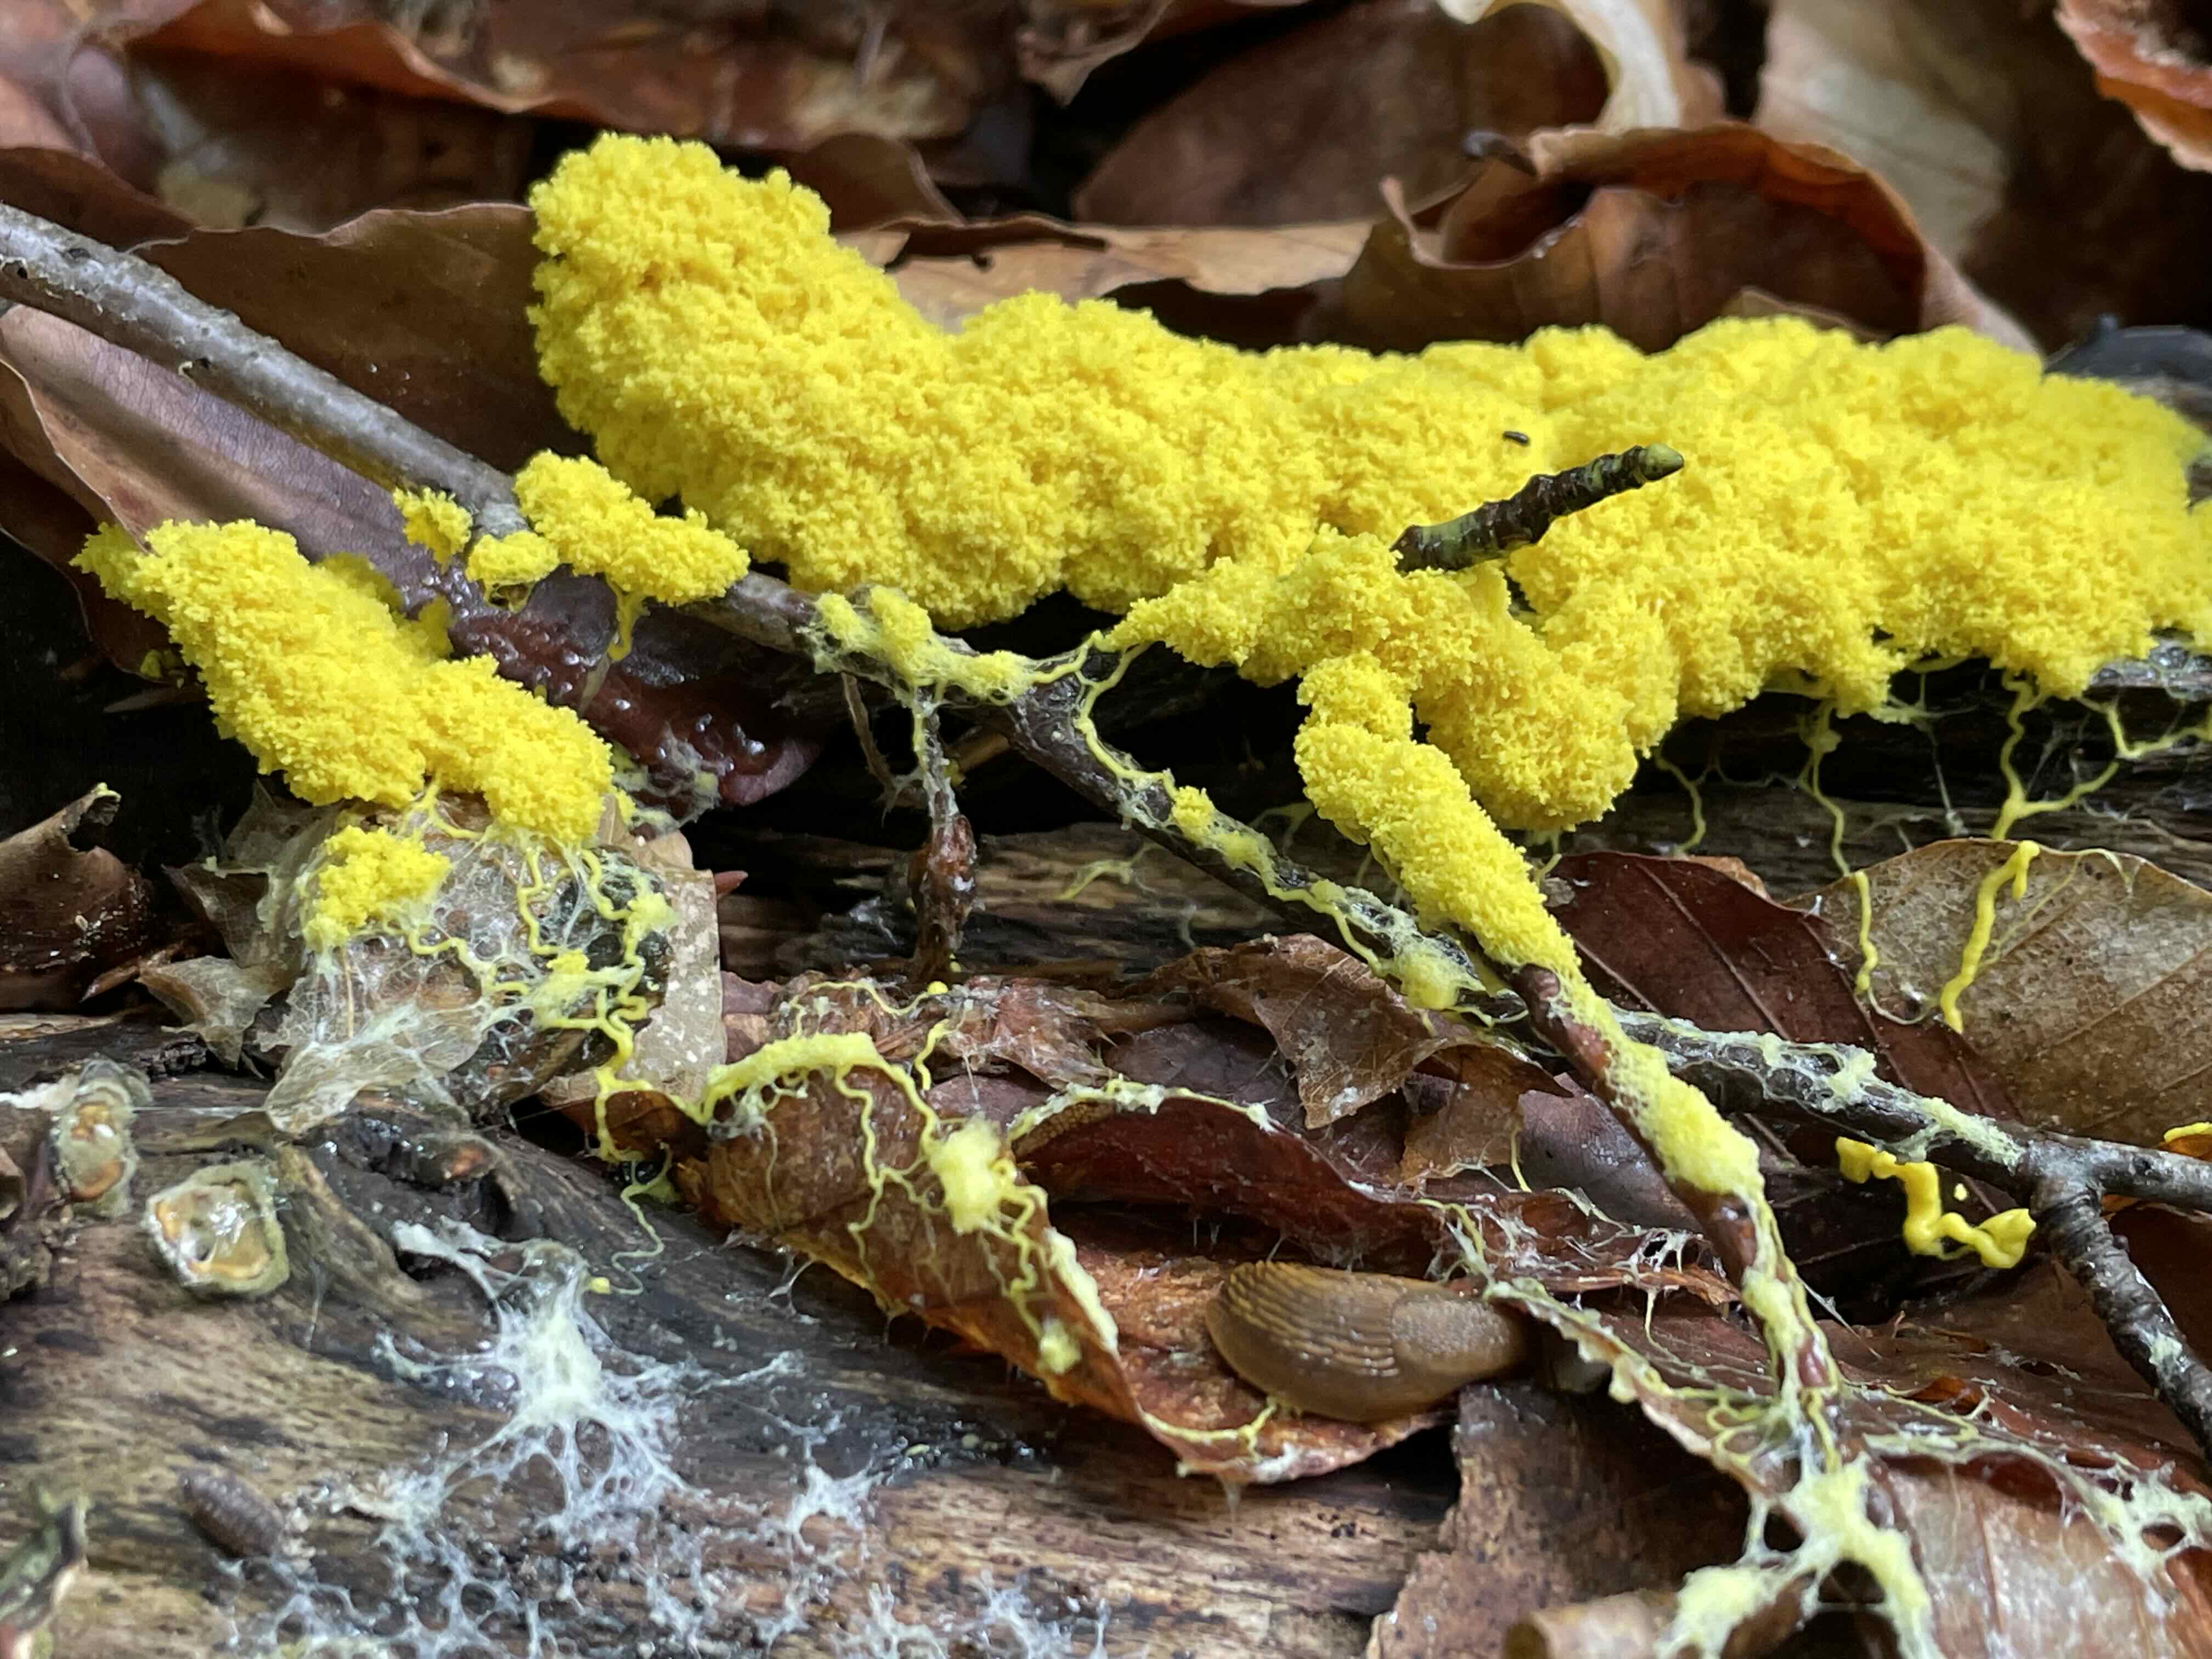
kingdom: Protozoa
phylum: Mycetozoa
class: Myxomycetes
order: Physarales
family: Physaraceae
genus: Fuligo
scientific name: Fuligo septica
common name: gul troldsmør
